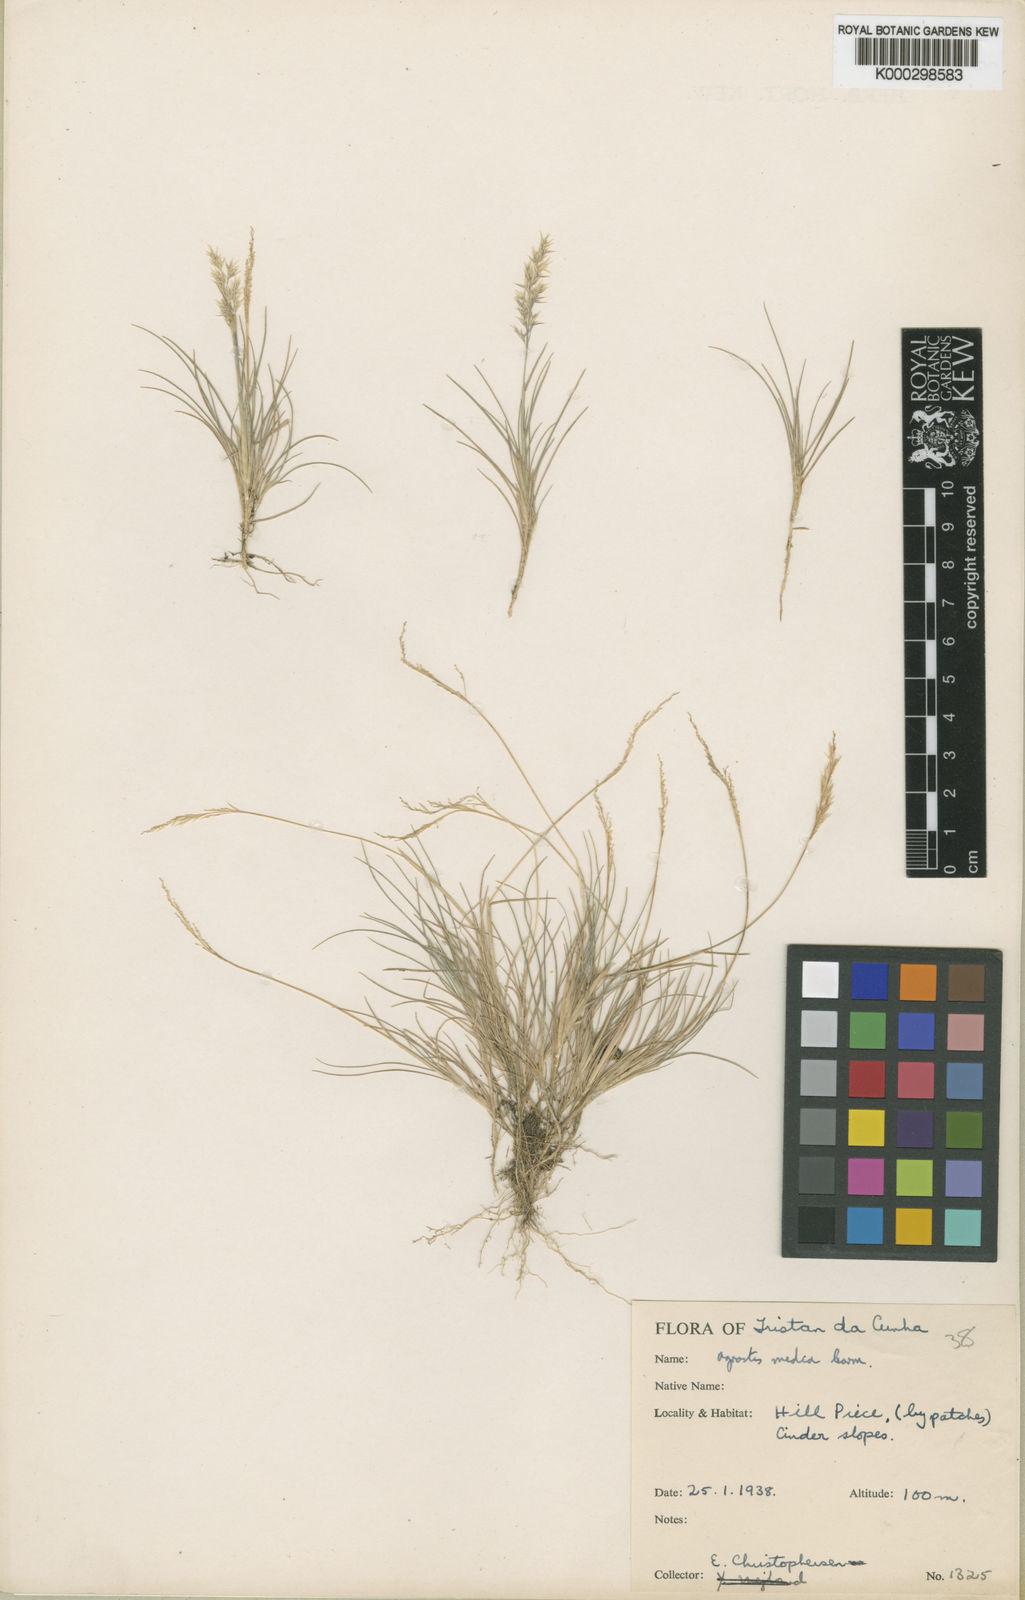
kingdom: Plantae
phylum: Tracheophyta
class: Liliopsida
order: Poales
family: Poaceae
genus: Agrostis
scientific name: Agrostis media
